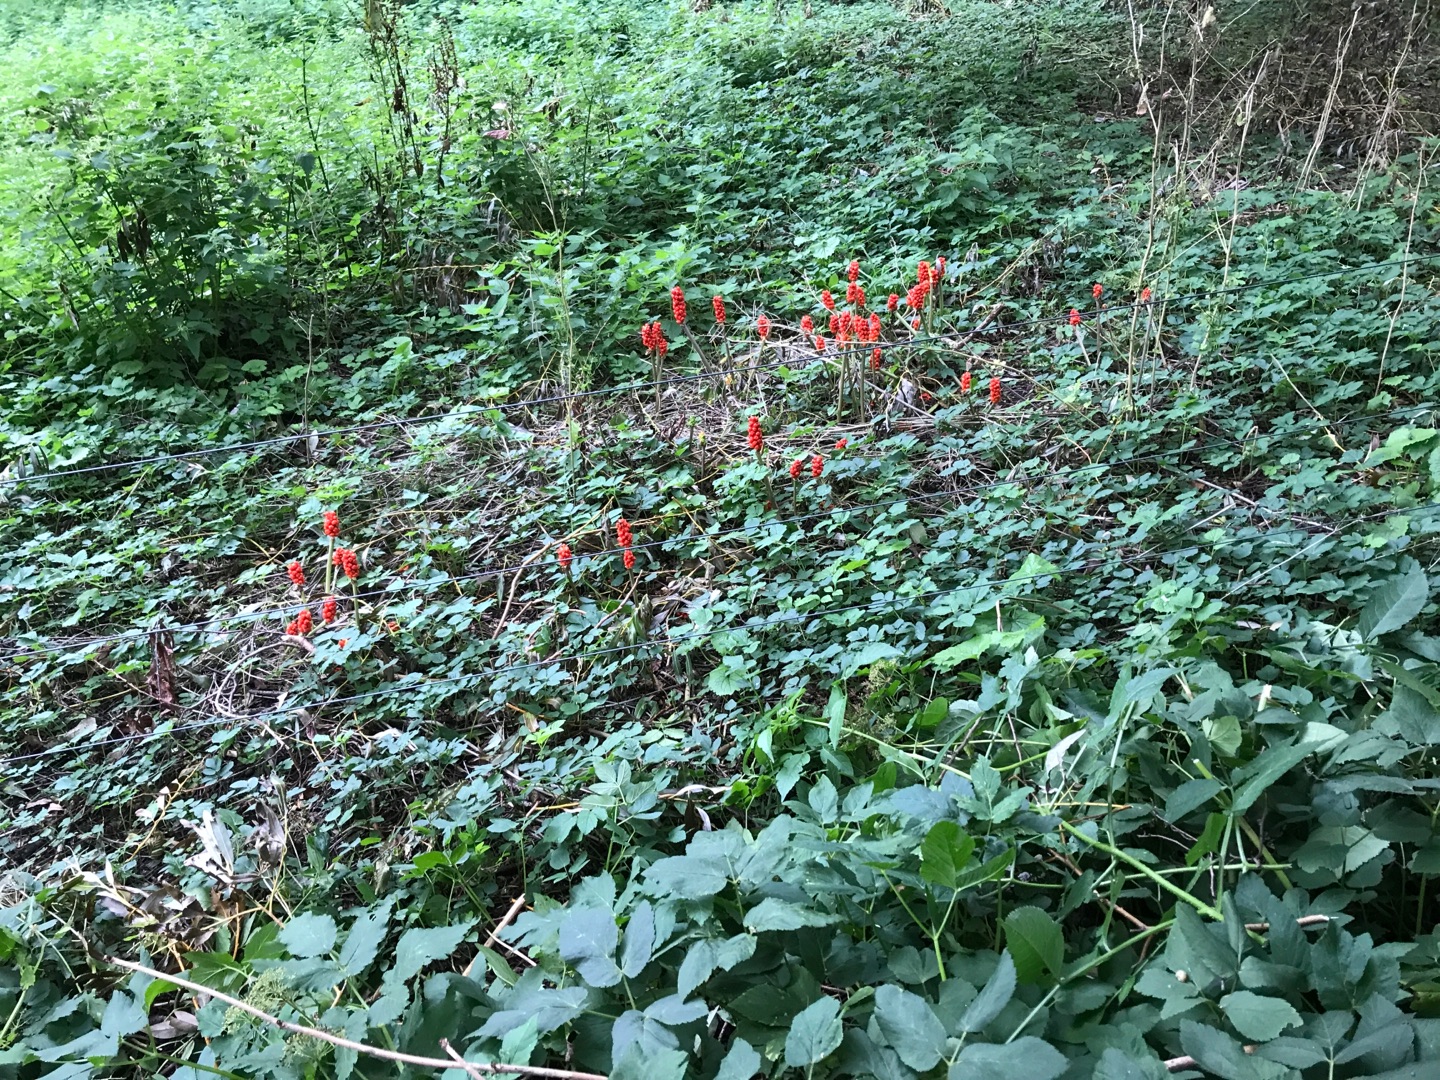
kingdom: Plantae
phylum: Tracheophyta
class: Liliopsida
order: Alismatales
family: Araceae
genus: Arum
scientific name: Arum maculatum
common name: Plettet arum
